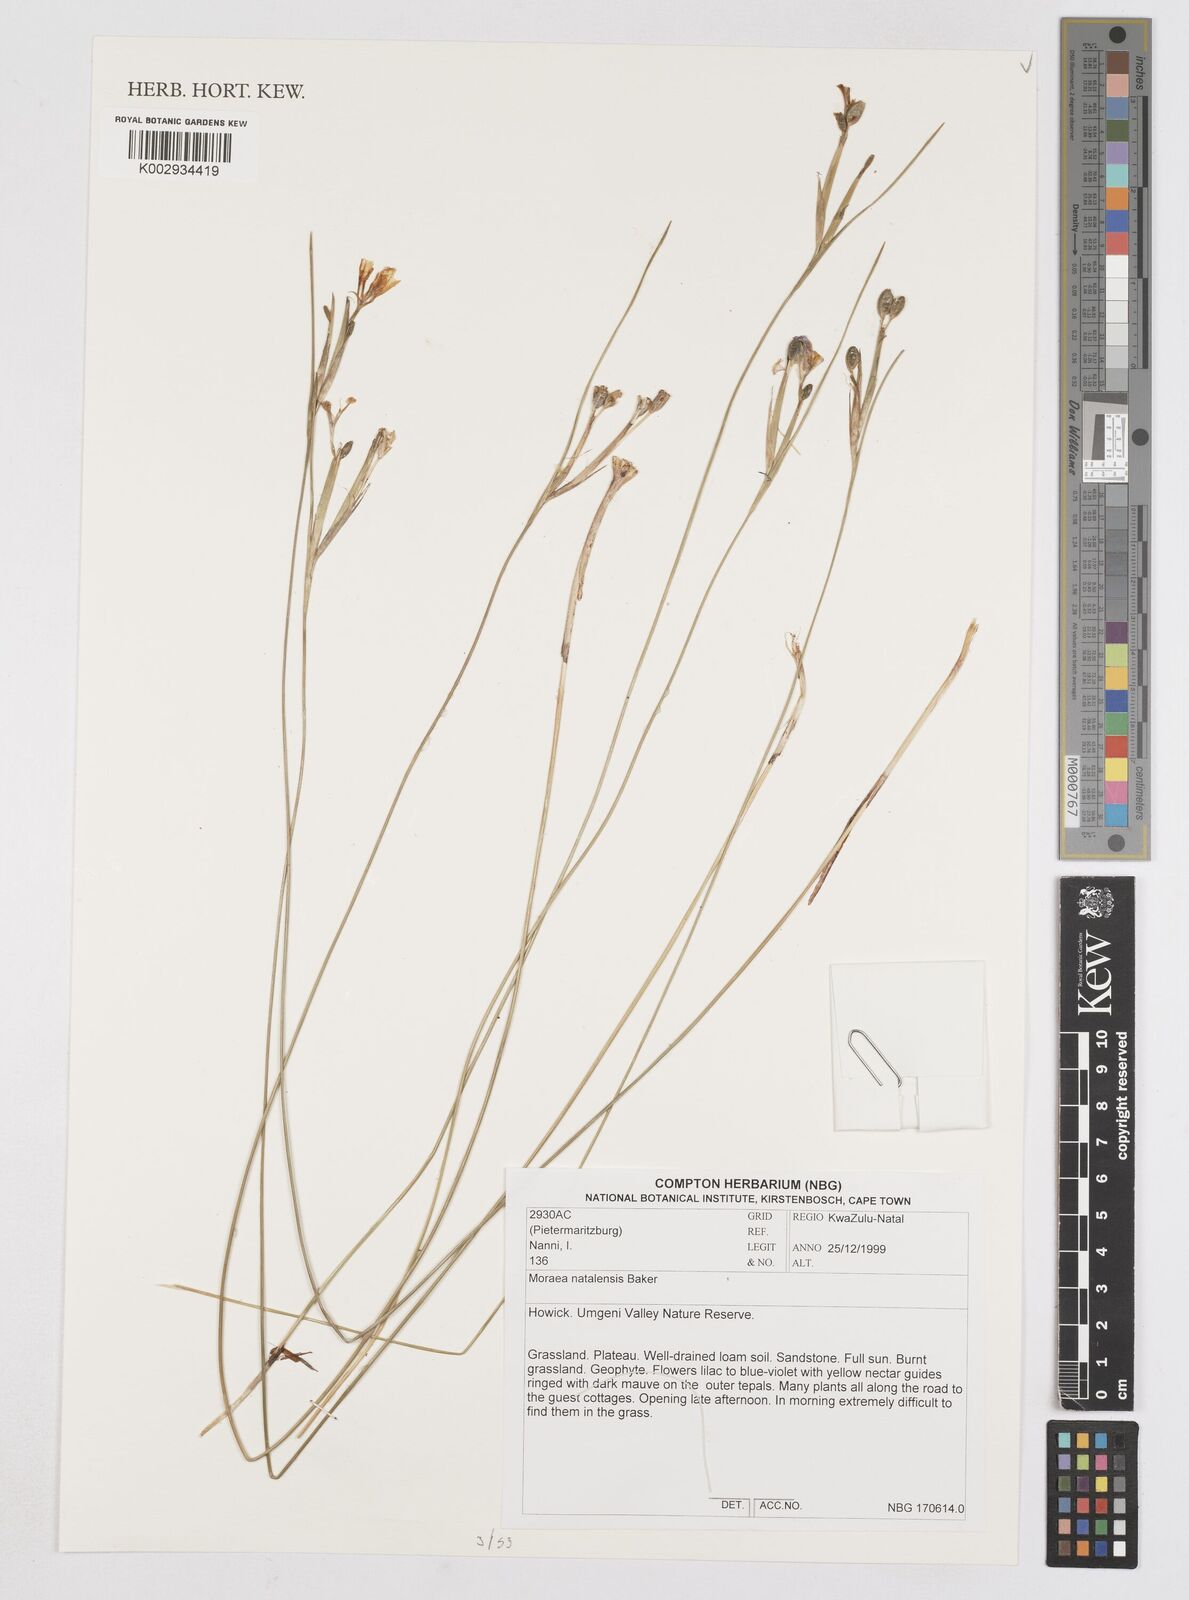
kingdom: Plantae
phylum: Tracheophyta
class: Liliopsida
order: Asparagales
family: Iridaceae
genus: Moraea
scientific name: Moraea natalensis
